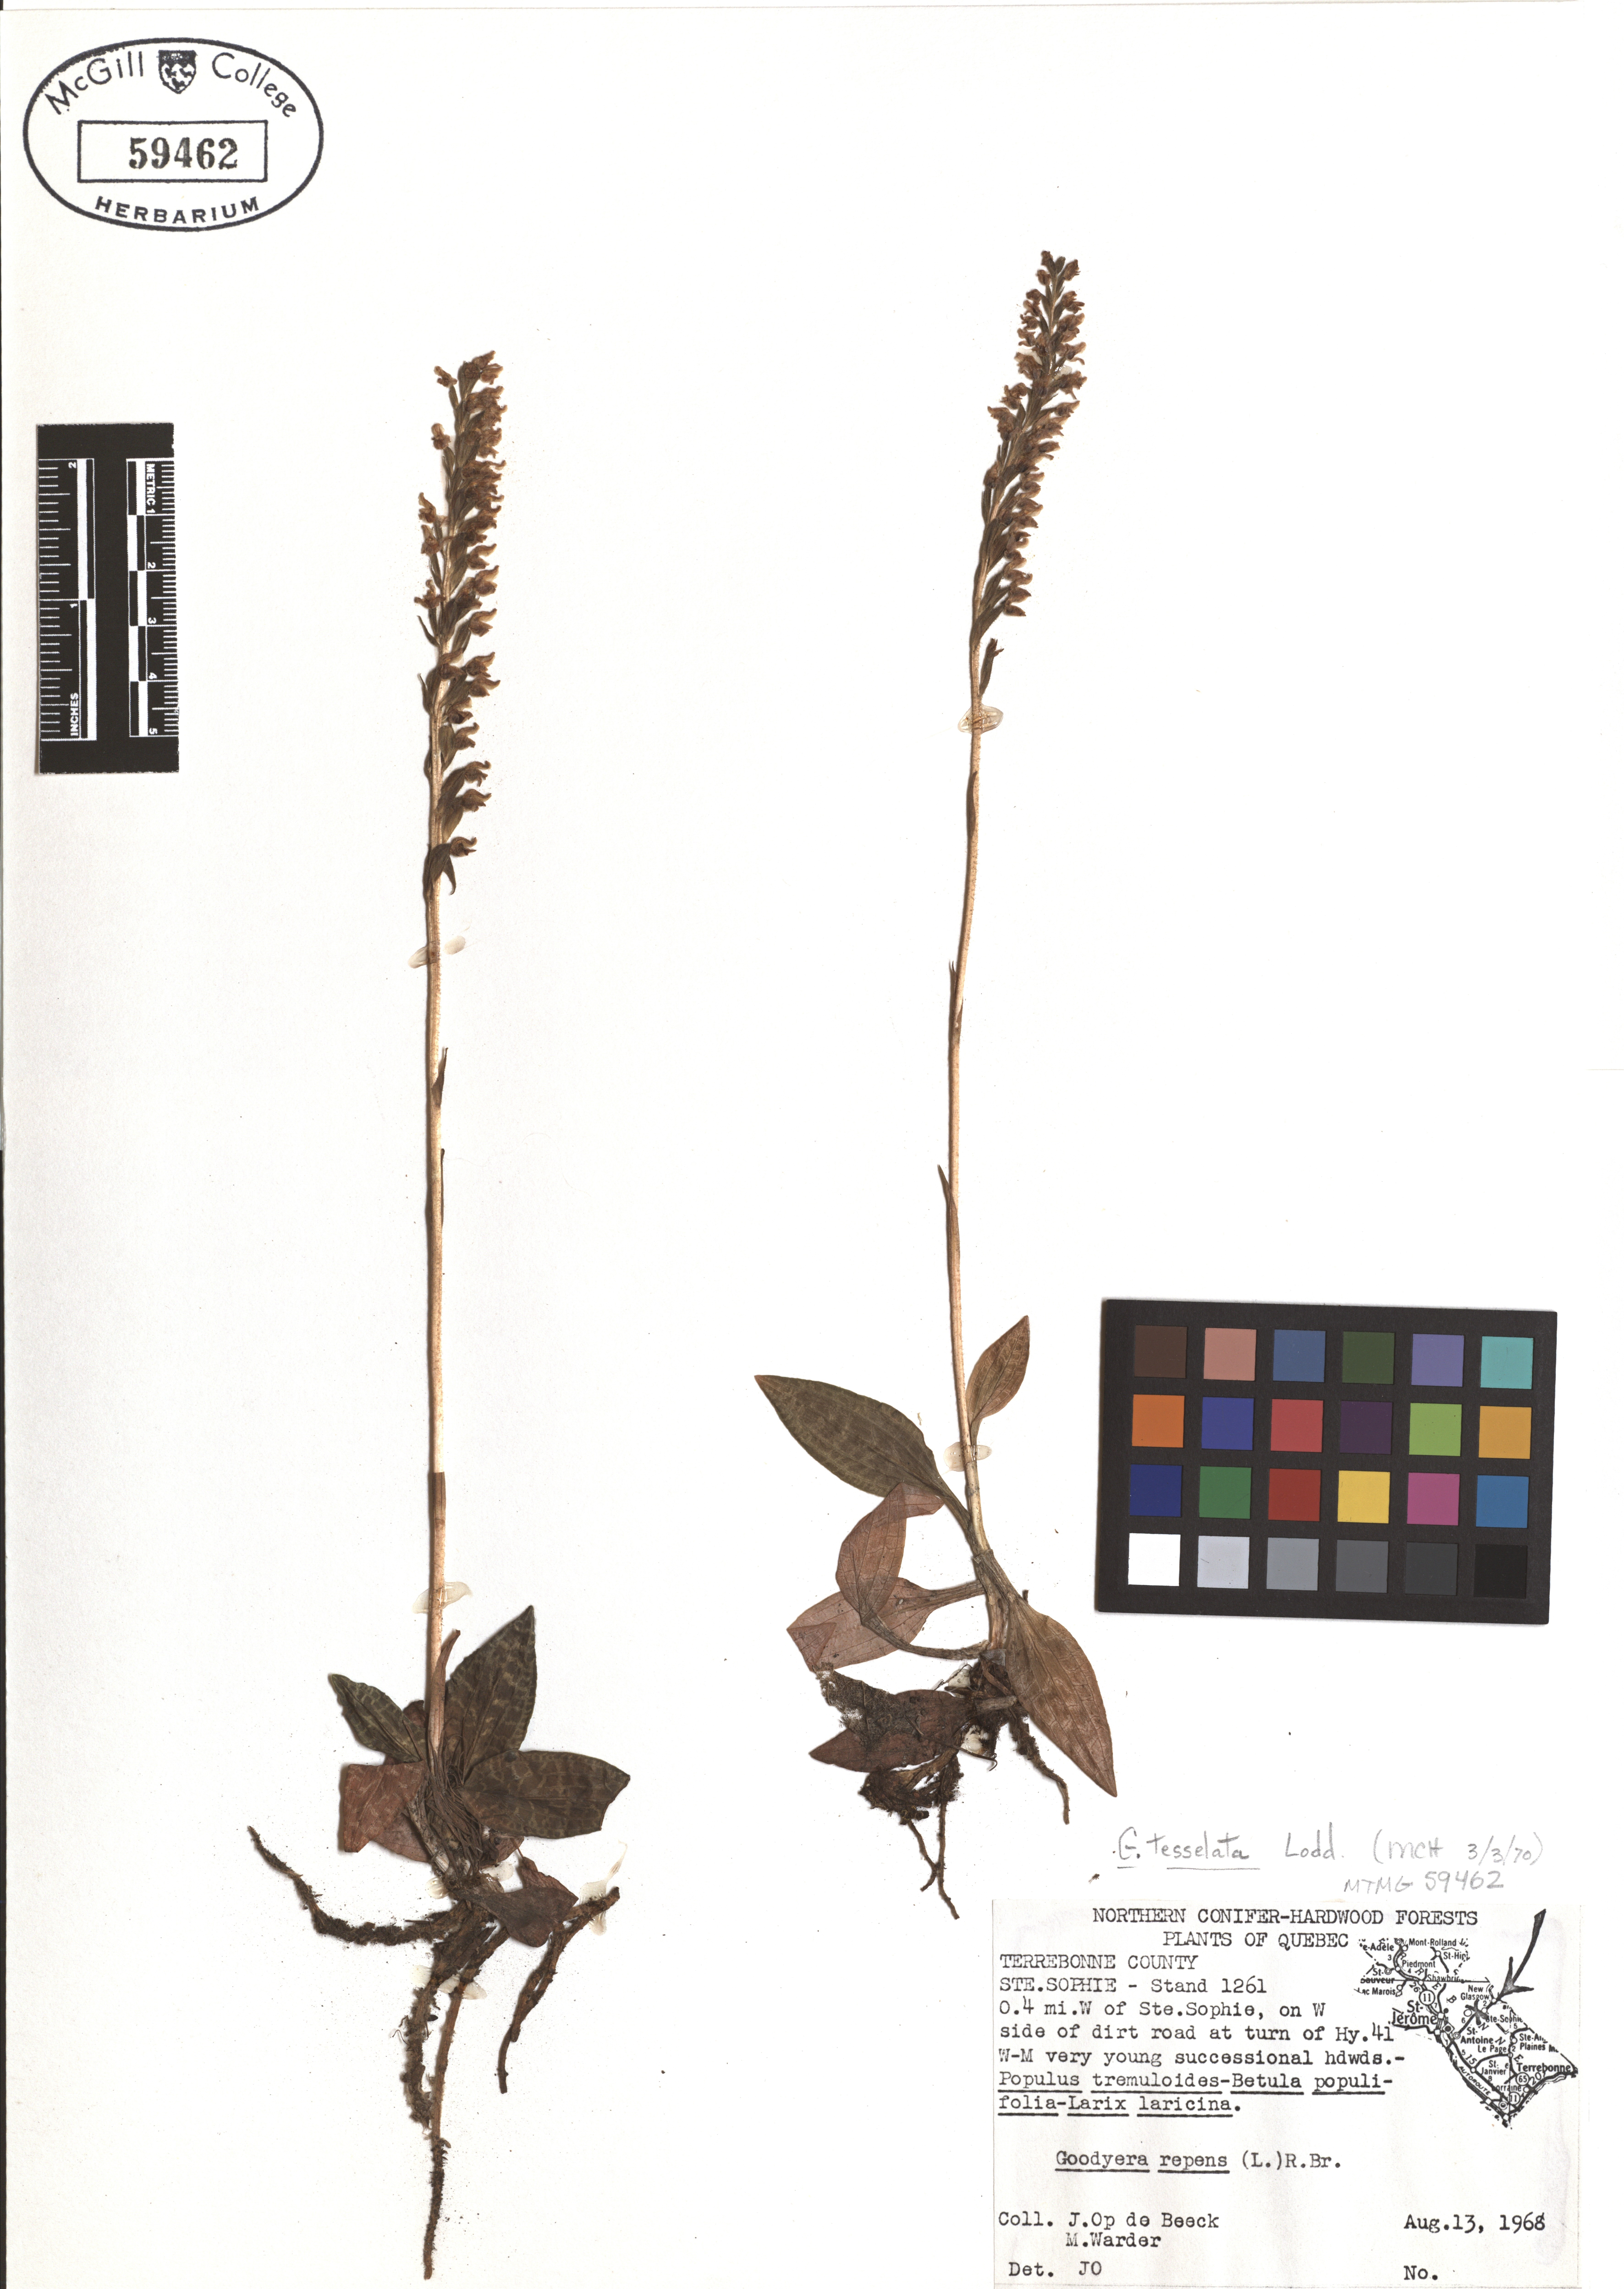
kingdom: Plantae
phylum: Tracheophyta
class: Liliopsida
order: Asparagales
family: Orchidaceae
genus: Goodyera
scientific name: Goodyera tesselata
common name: Checkered rattlesnake-plantain
